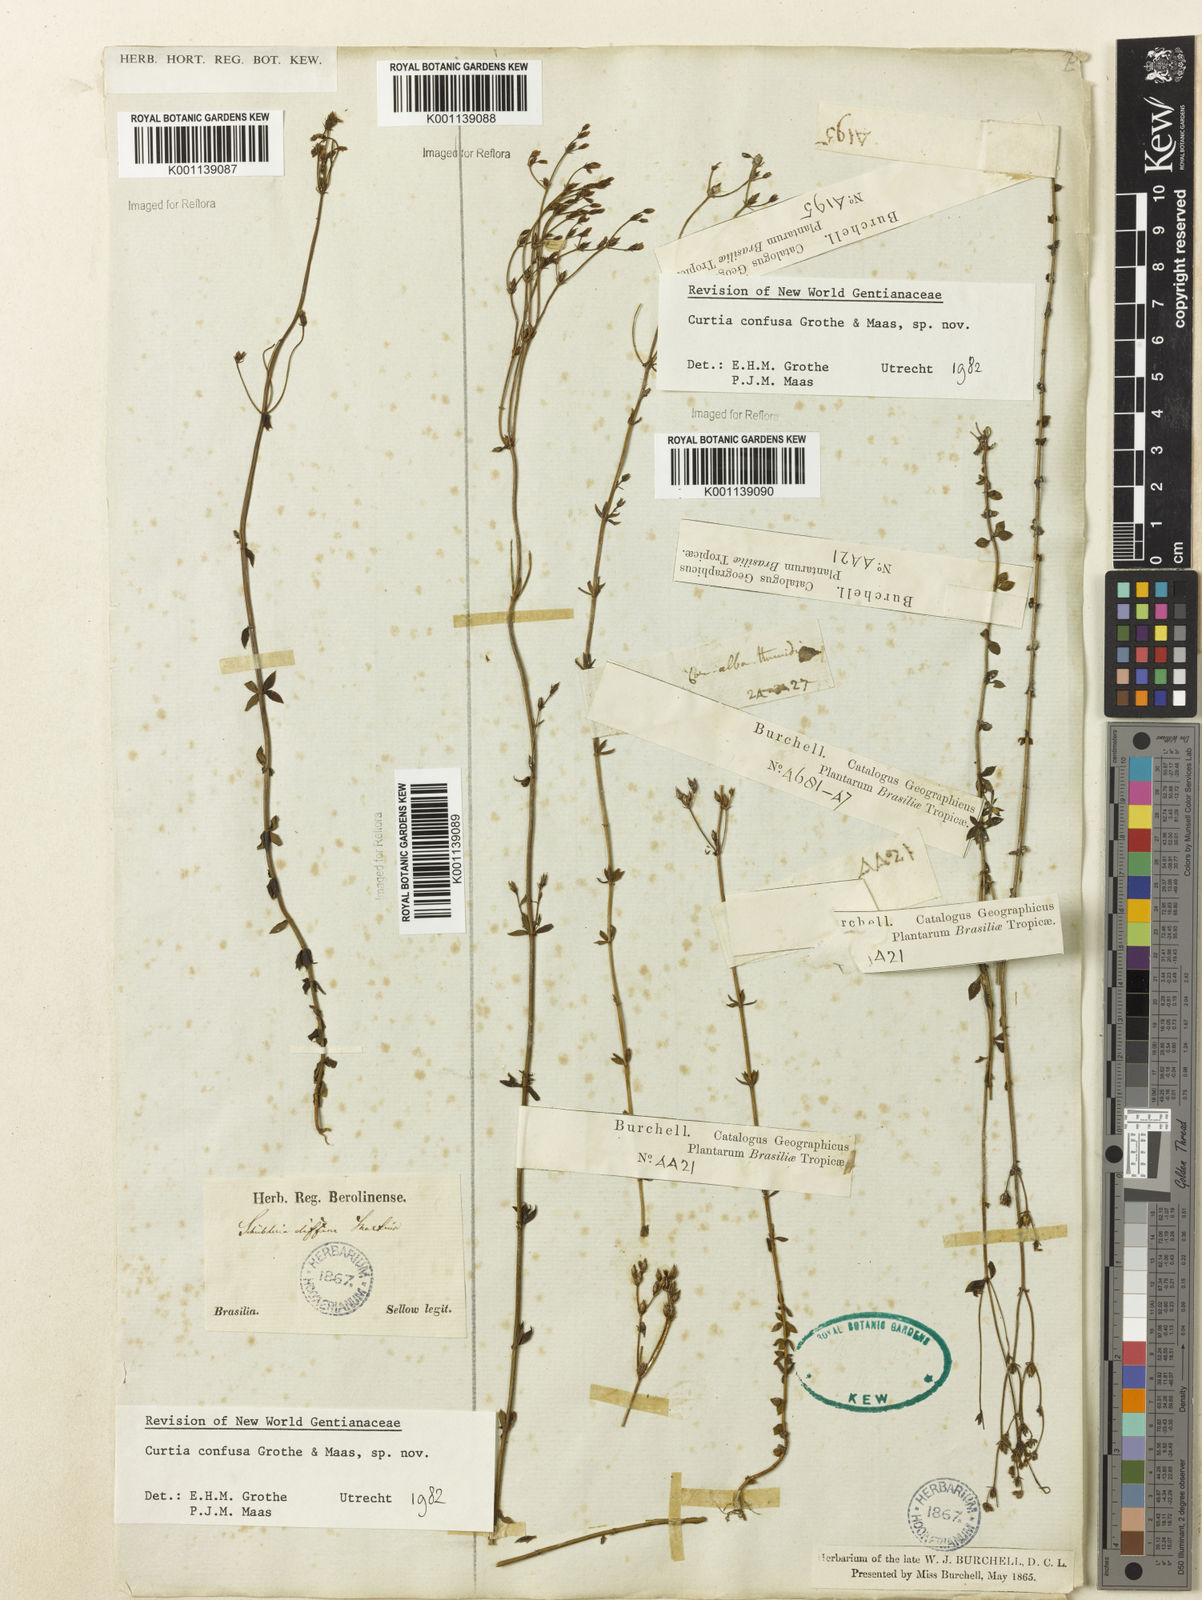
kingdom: Plantae
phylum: Tracheophyta
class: Magnoliopsida
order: Gentianales
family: Gentianaceae
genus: Curtia
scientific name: Curtia conferta
